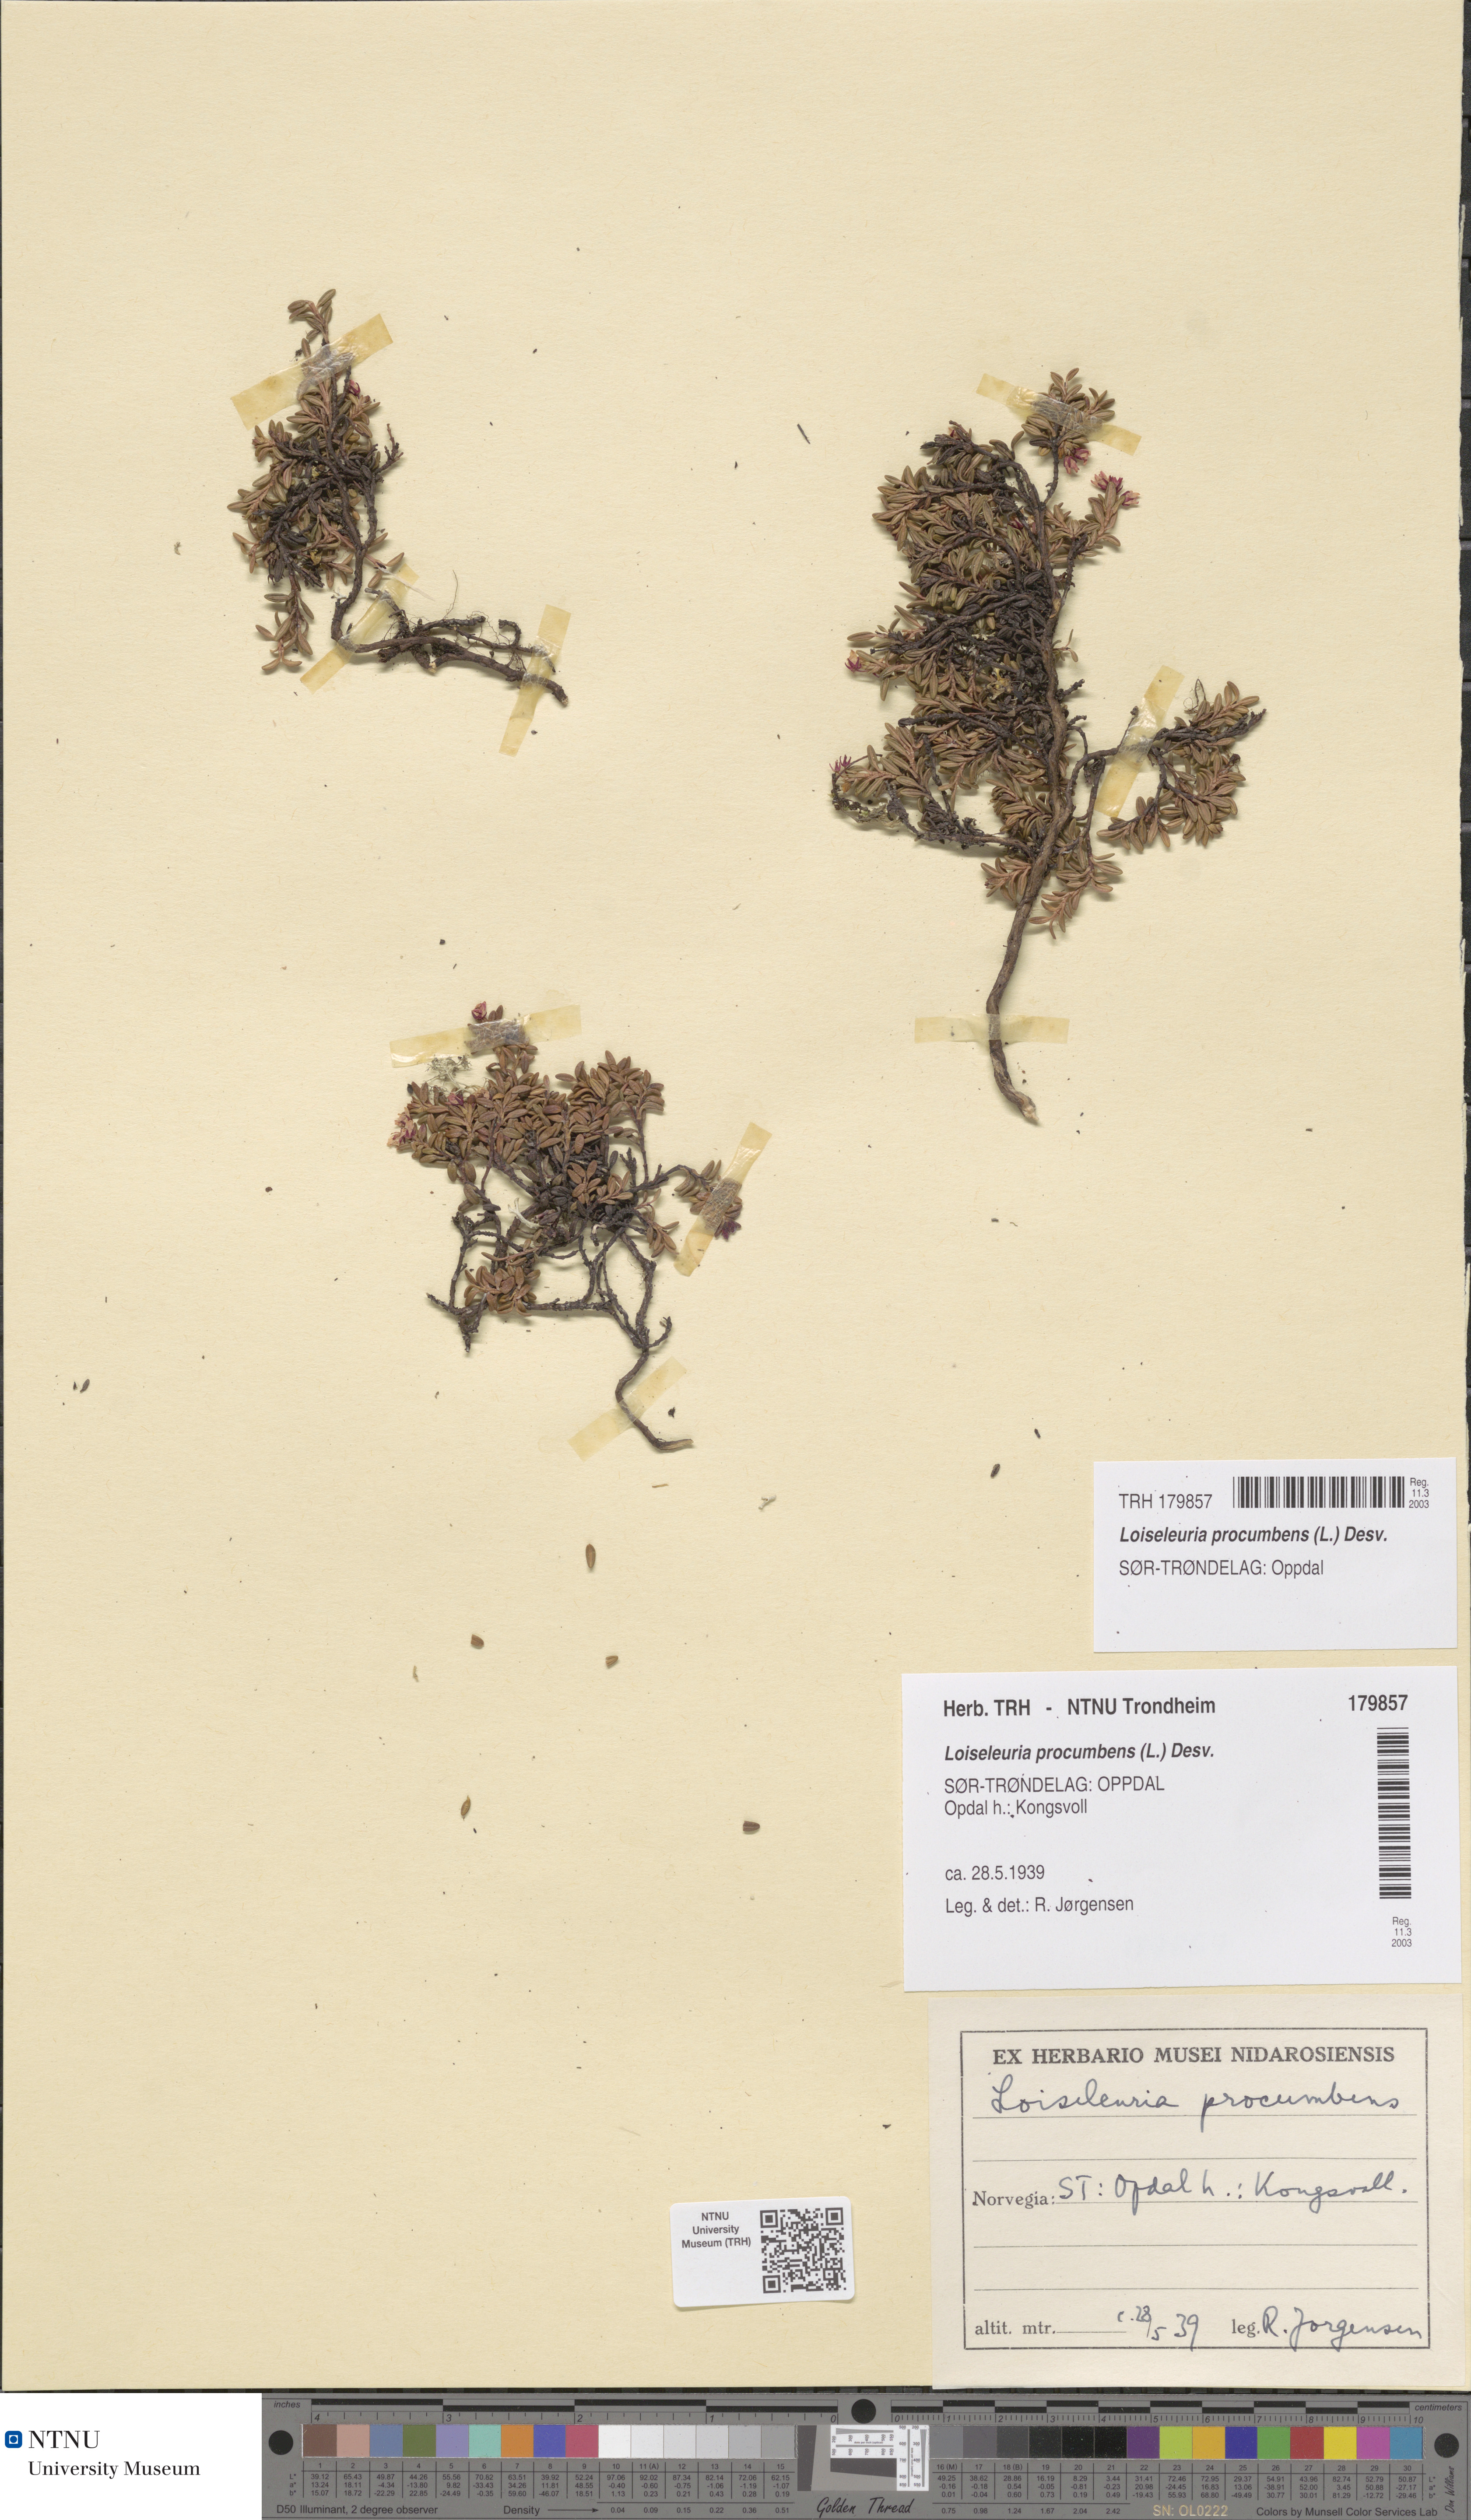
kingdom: Plantae
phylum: Tracheophyta
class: Magnoliopsida
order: Ericales
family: Ericaceae
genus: Kalmia
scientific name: Kalmia procumbens
